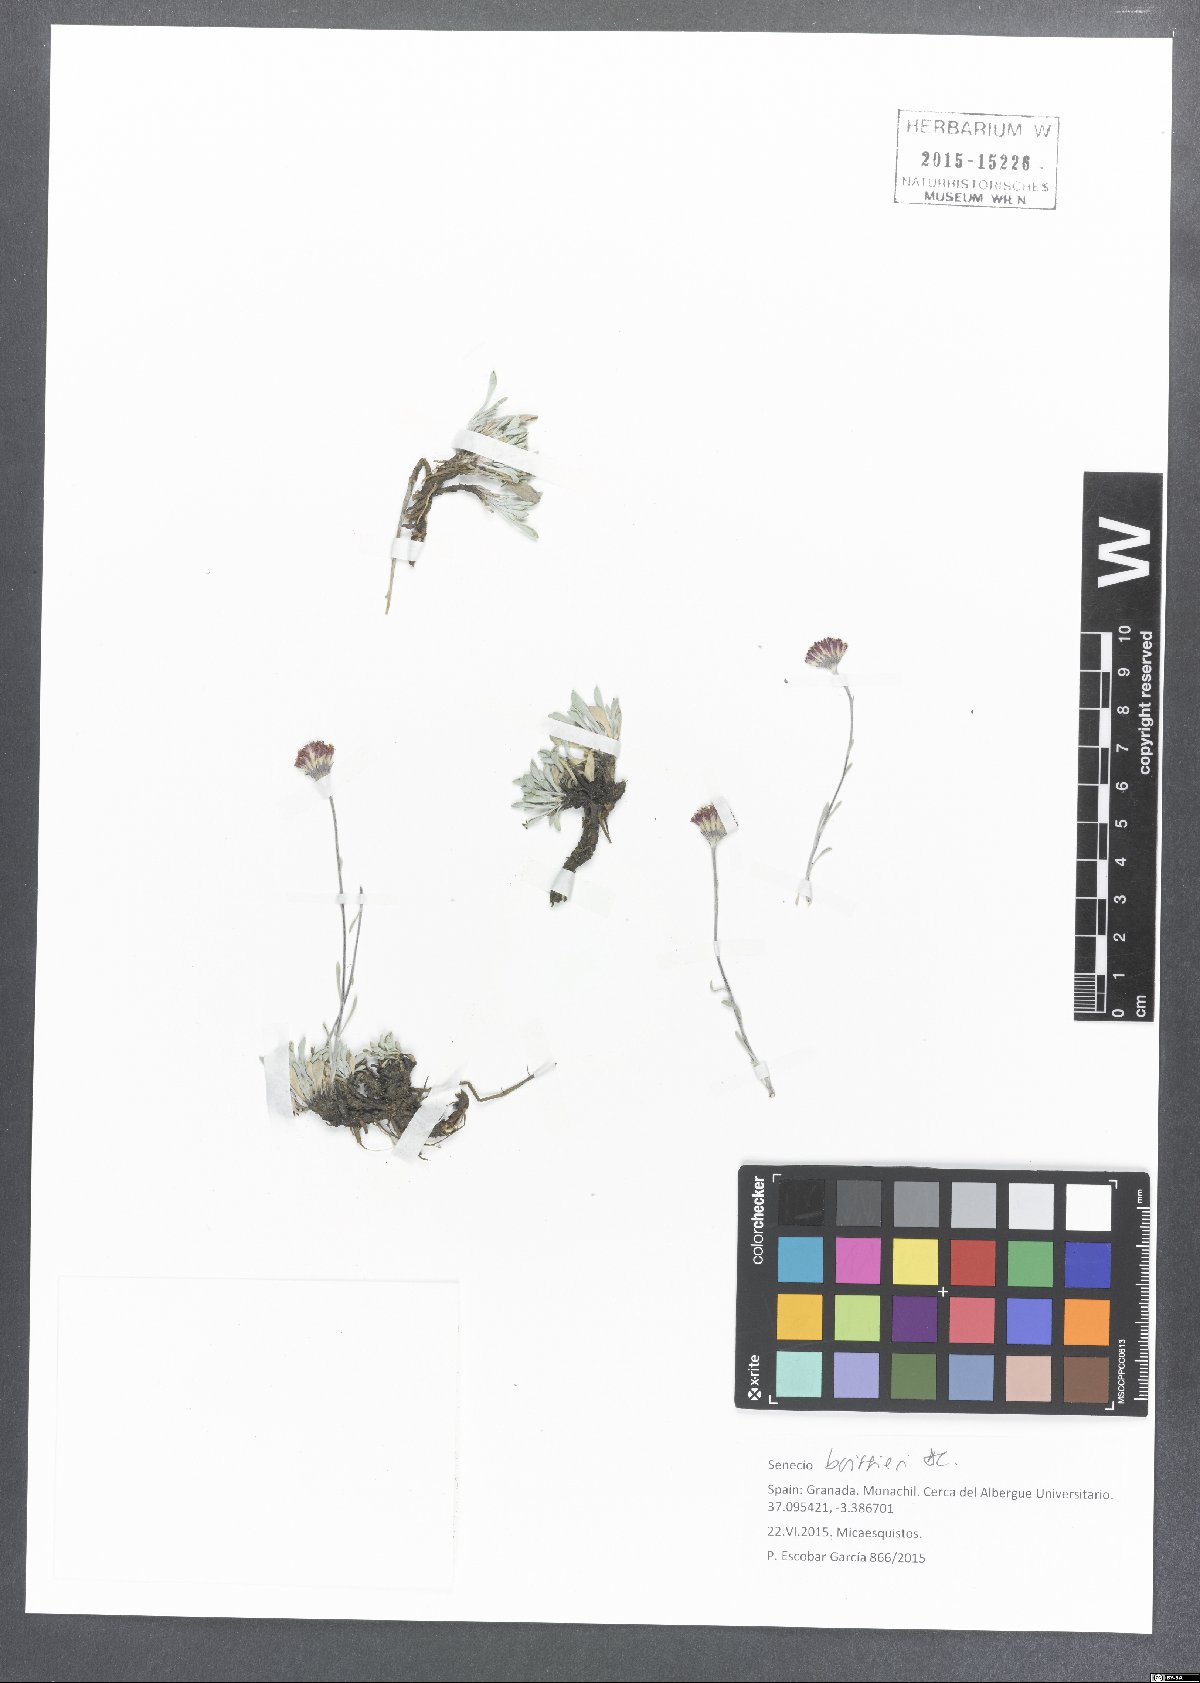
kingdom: Plantae
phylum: Tracheophyta
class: Magnoliopsida
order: Asterales
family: Asteraceae
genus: Jacobaea
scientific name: Jacobaea boissieri
